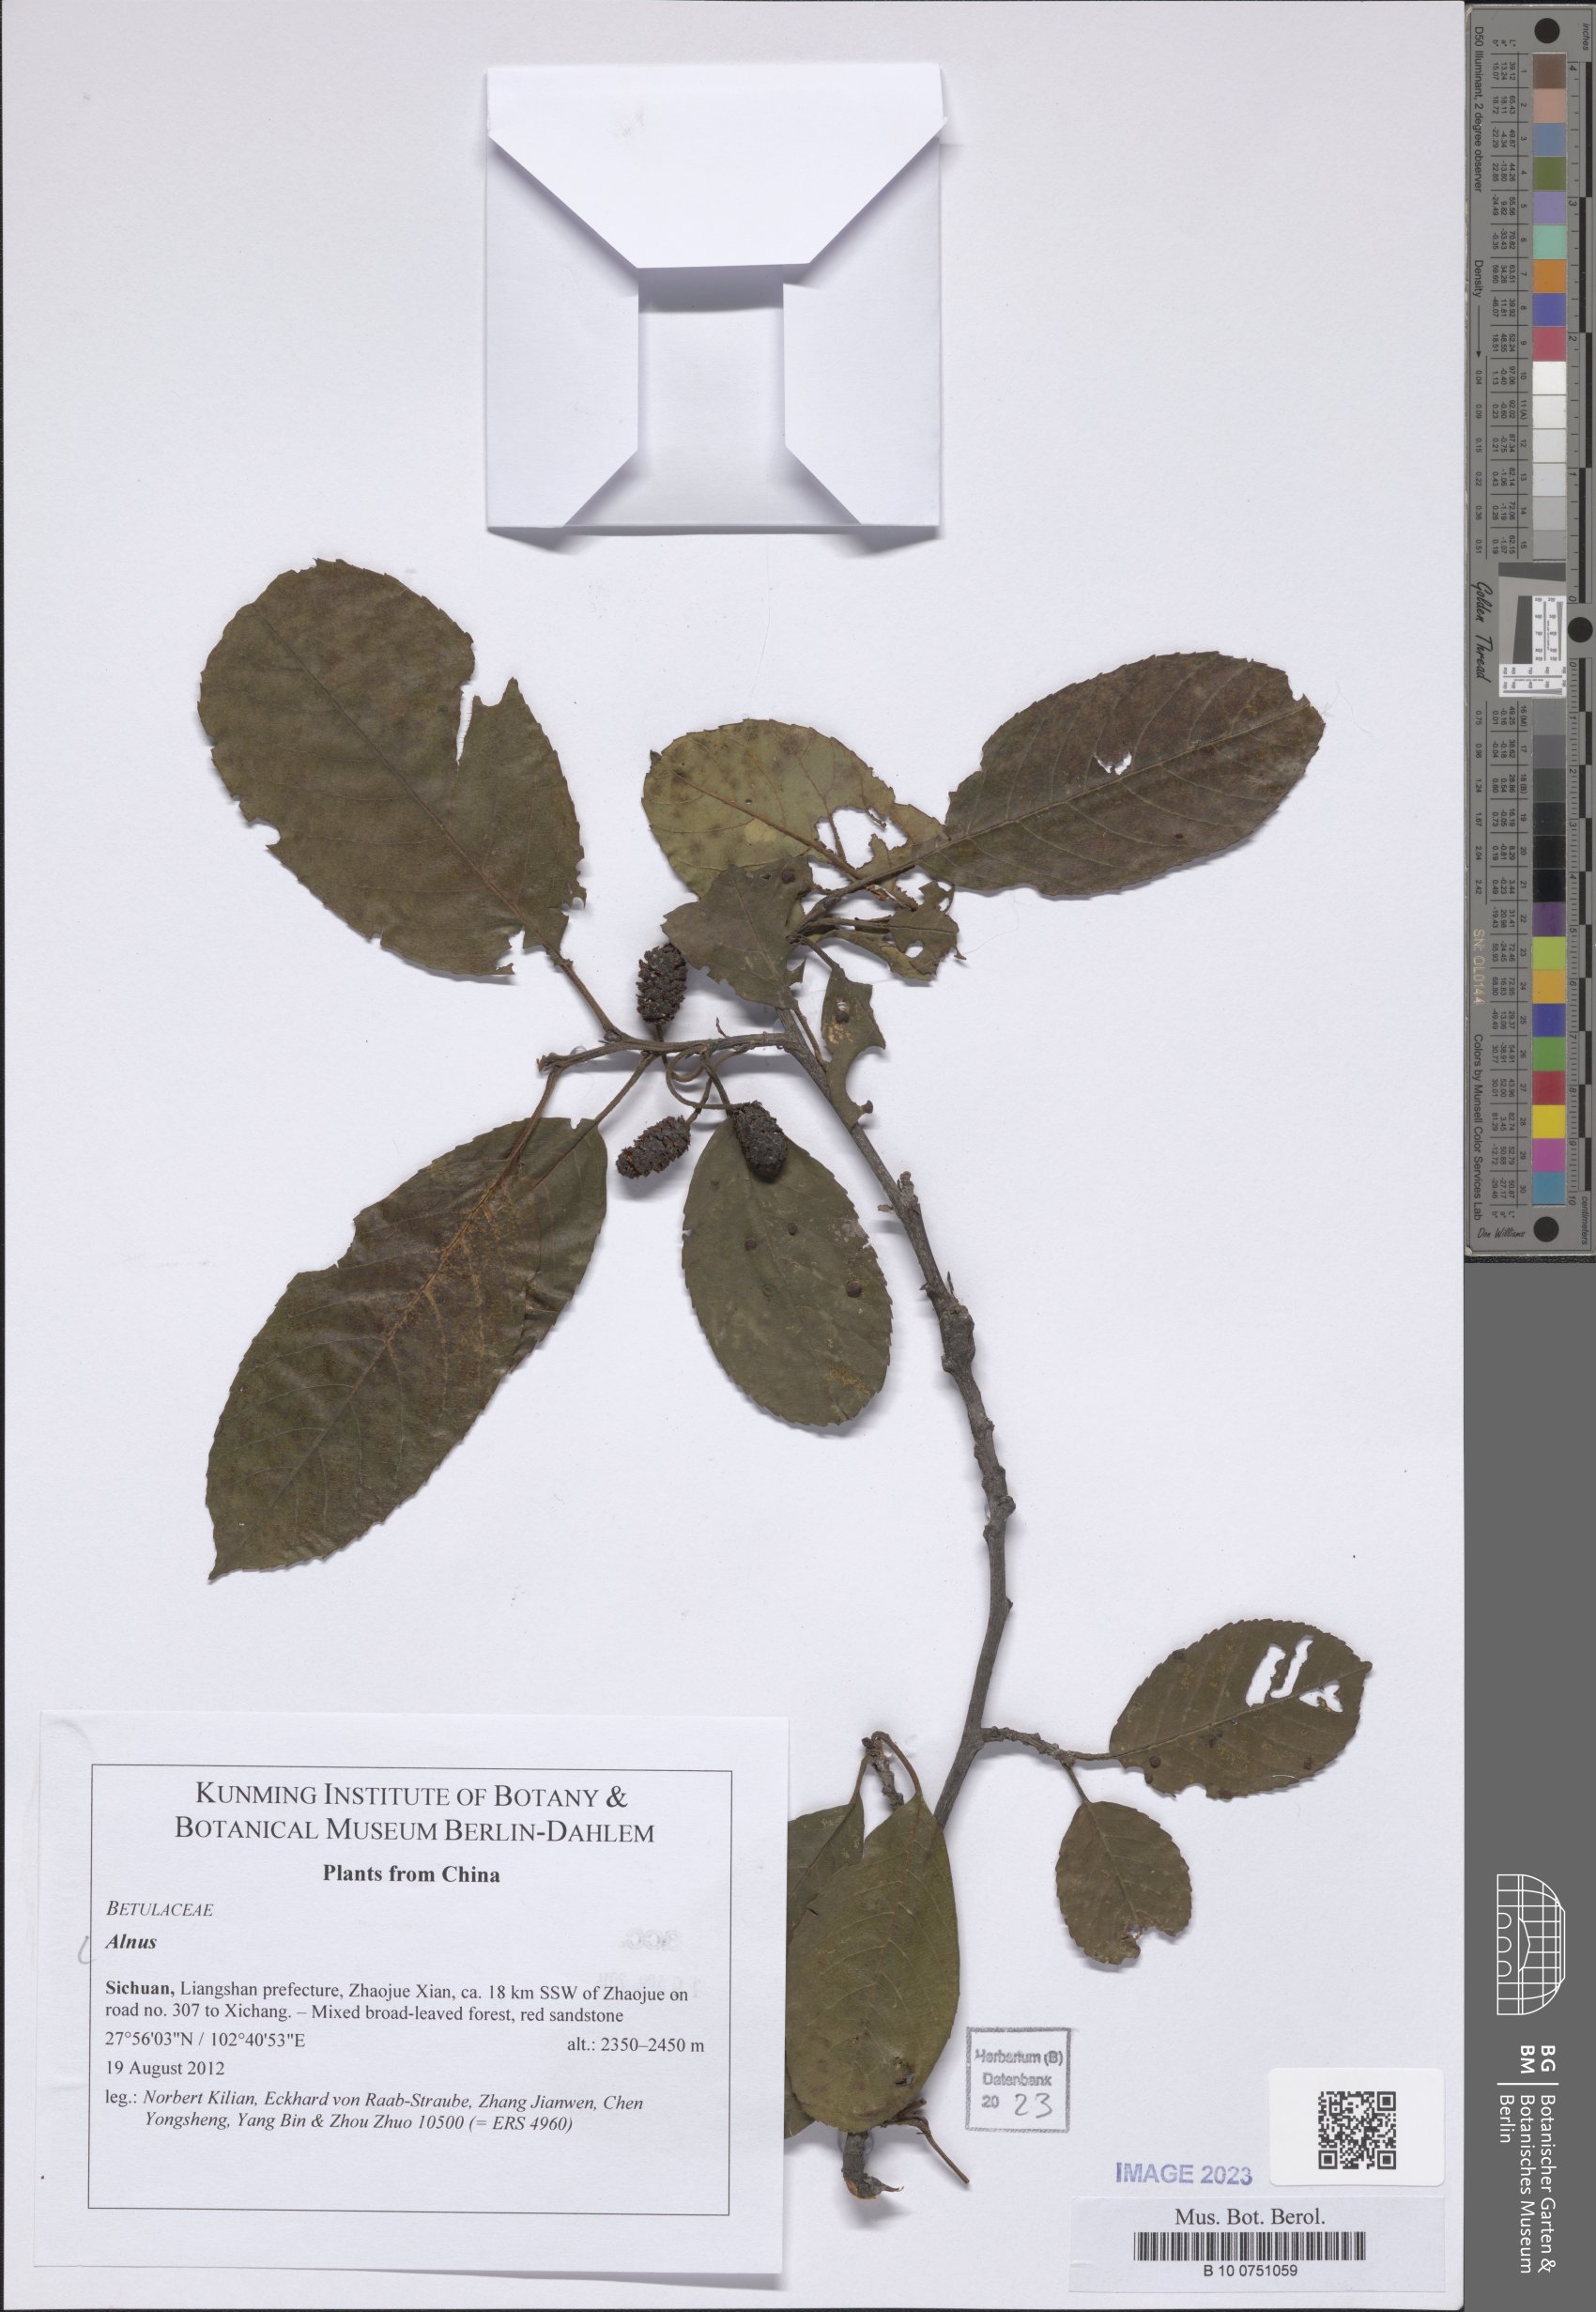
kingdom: Plantae
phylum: Tracheophyta
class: Magnoliopsida
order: Fagales
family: Betulaceae
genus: Alnus
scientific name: Alnus
